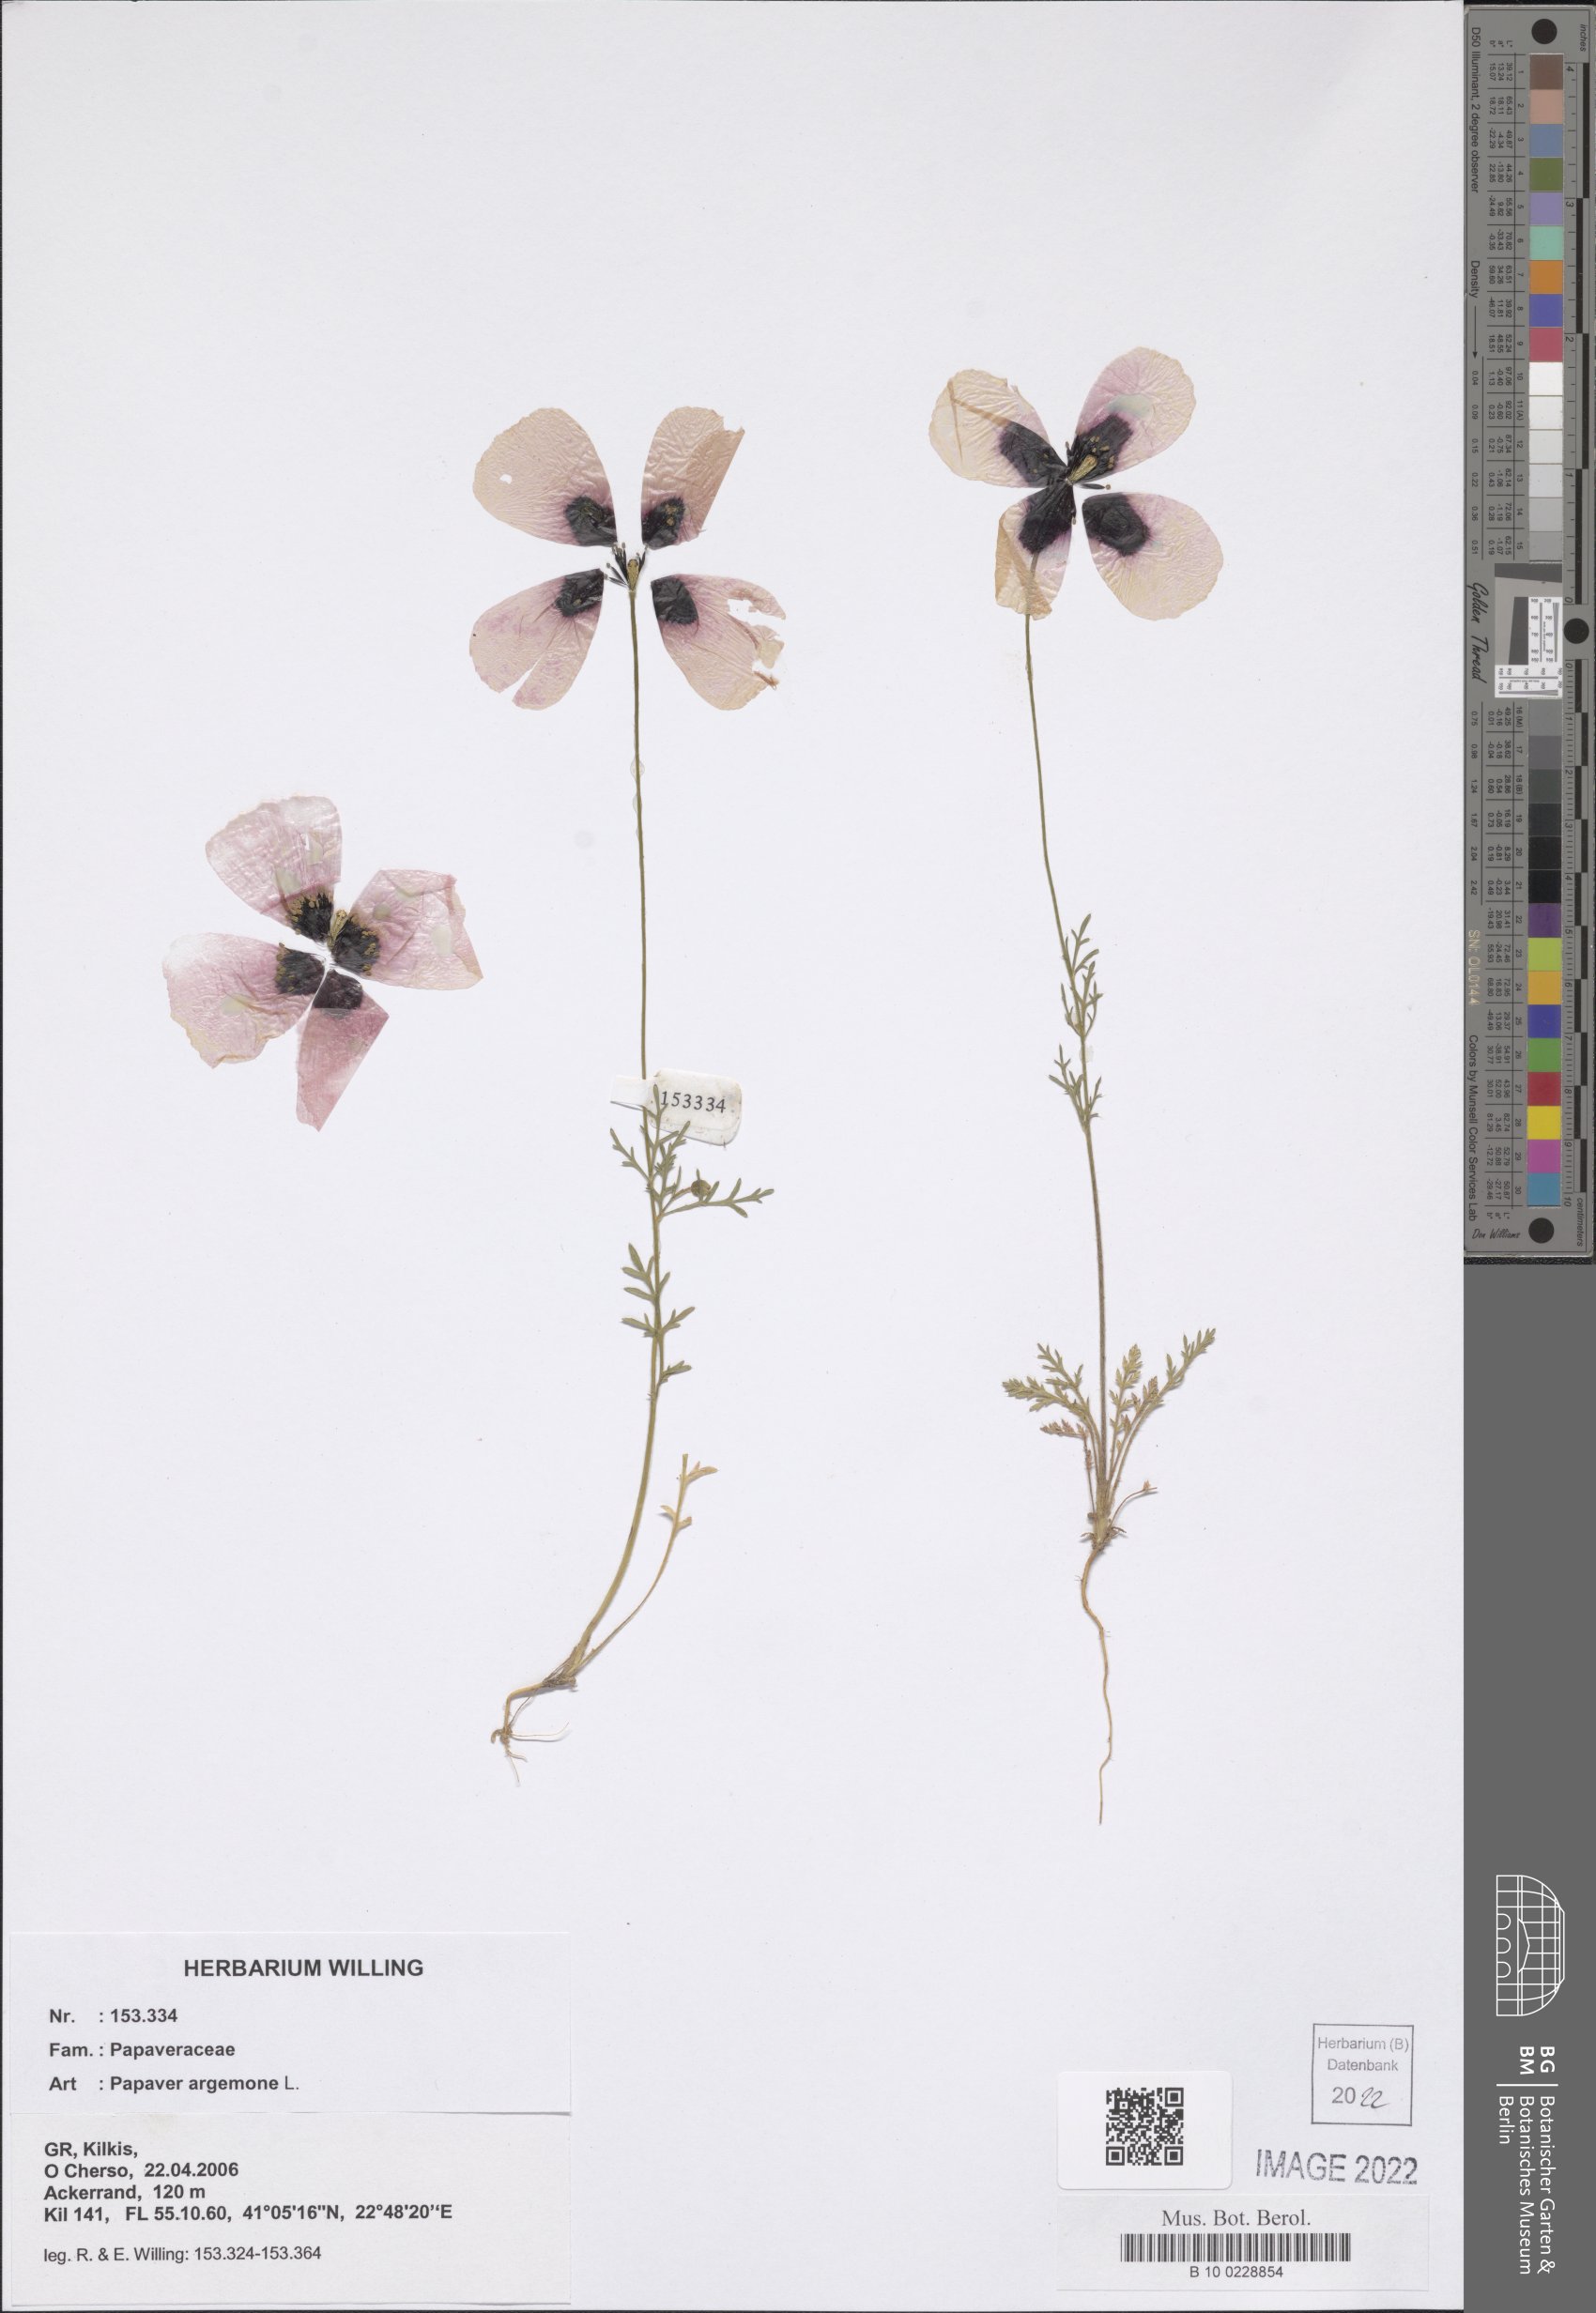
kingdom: Plantae
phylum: Tracheophyta
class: Magnoliopsida
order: Ranunculales
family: Papaveraceae
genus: Roemeria
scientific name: Roemeria argemone
